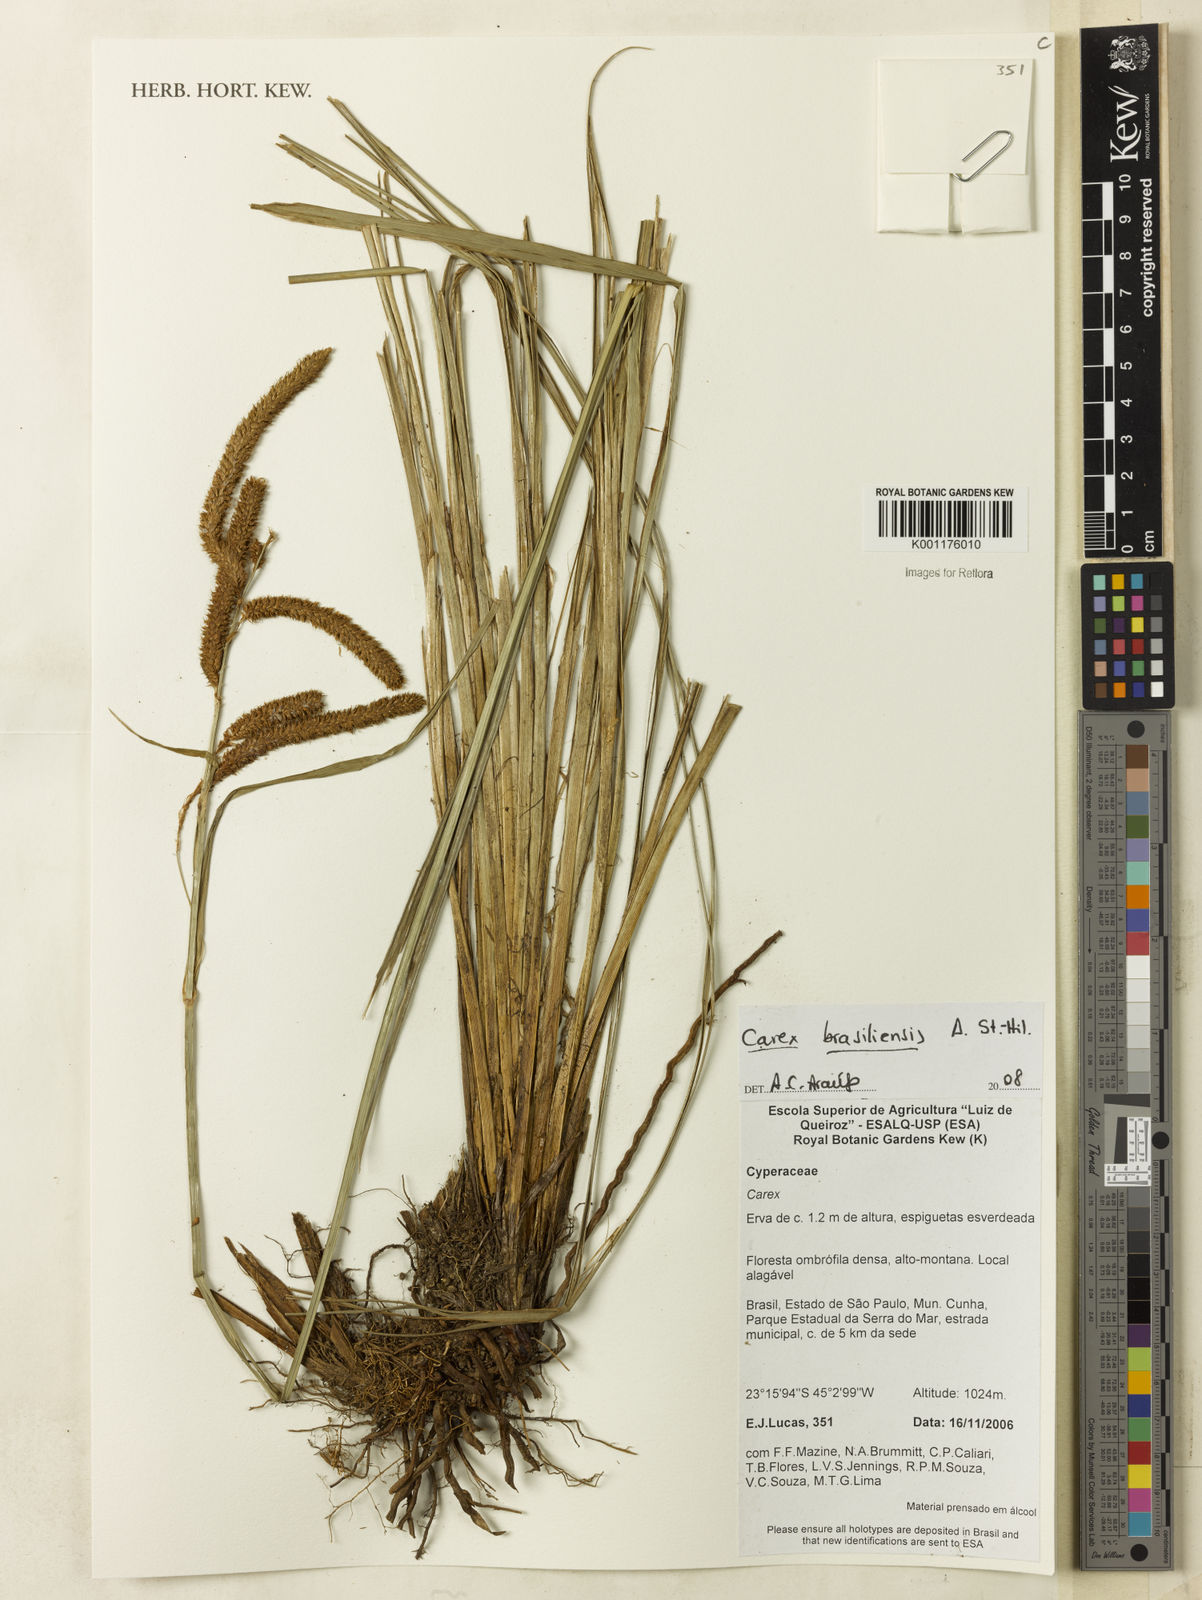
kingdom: Plantae
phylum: Tracheophyta
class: Liliopsida
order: Poales
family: Cyperaceae
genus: Carex
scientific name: Carex brasiliensis
